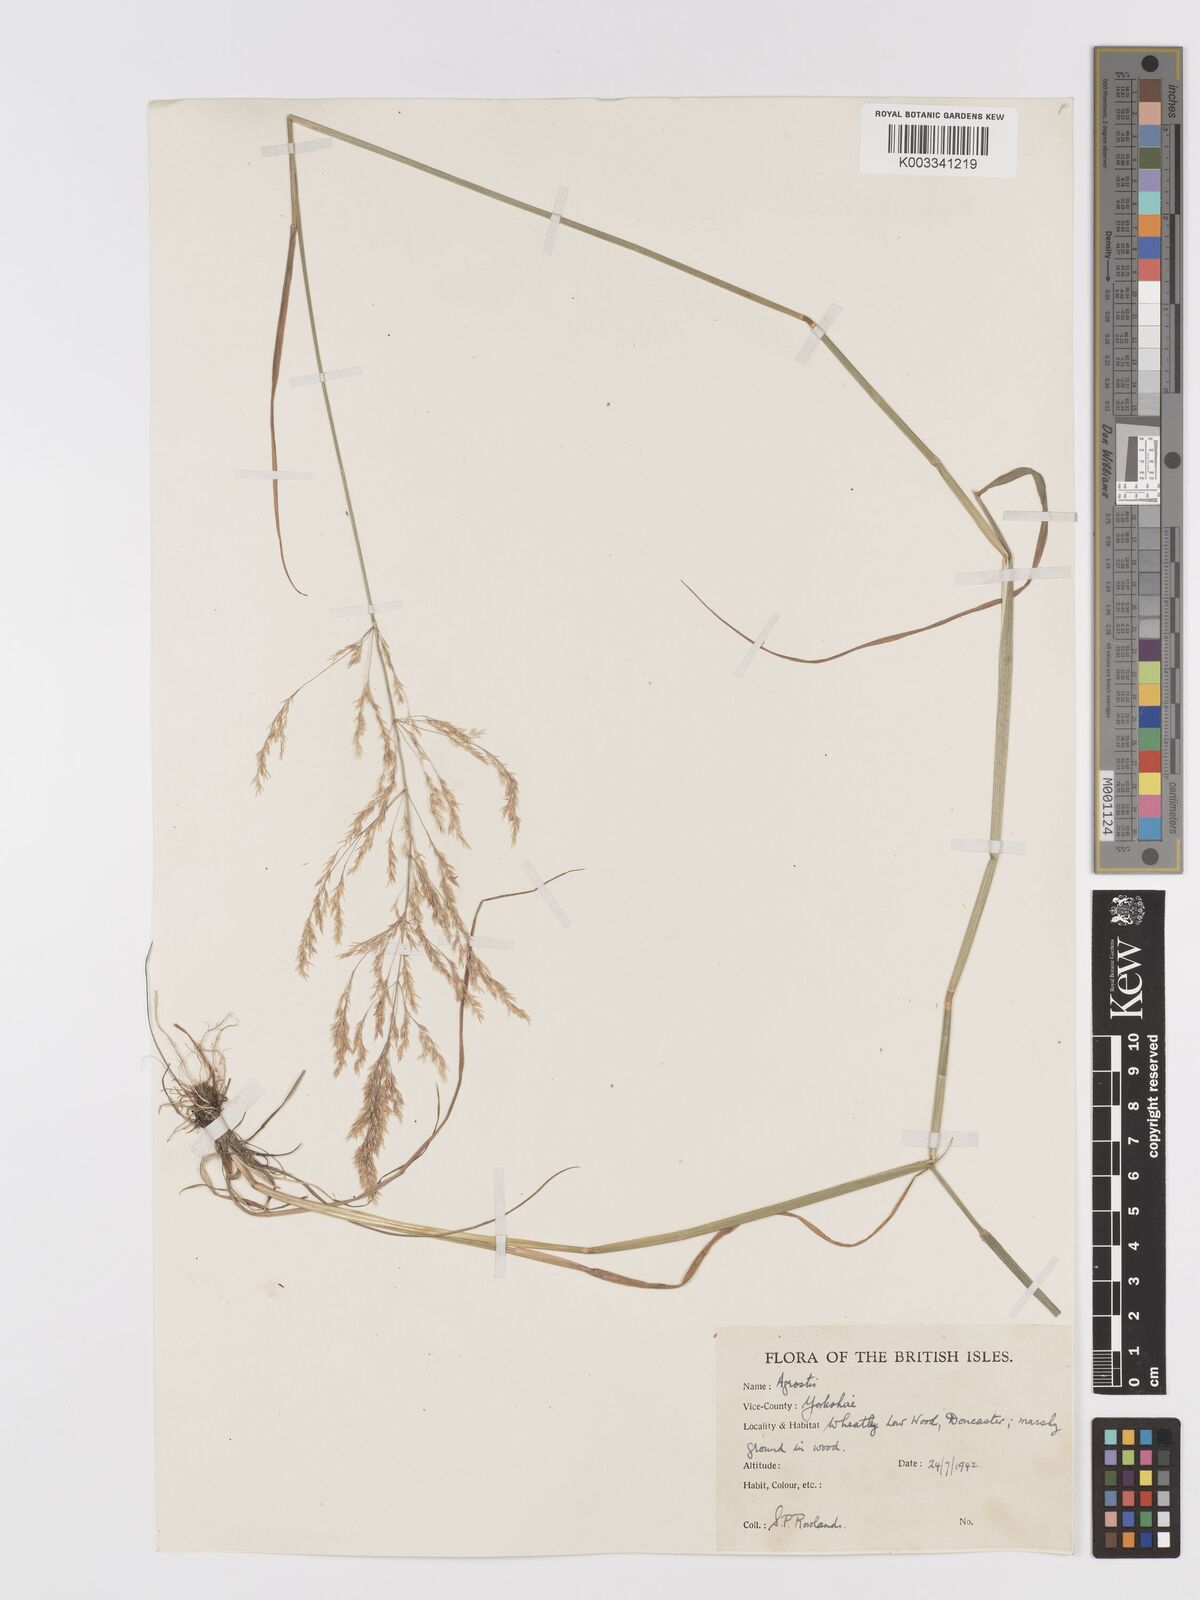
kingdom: Plantae
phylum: Tracheophyta
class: Liliopsida
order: Poales
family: Poaceae
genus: Agrostis
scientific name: Agrostis gigantea
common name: Black bent
